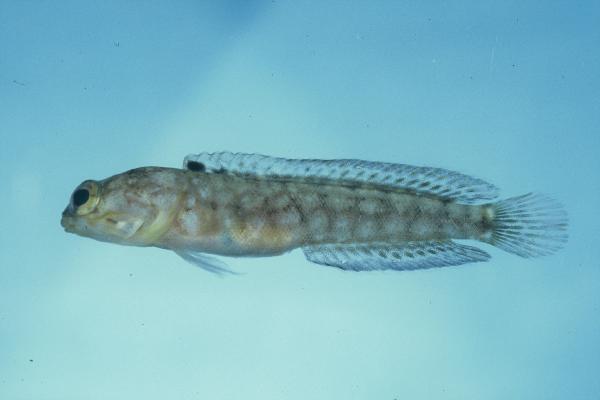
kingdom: Animalia
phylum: Chordata
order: Perciformes
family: Opistognathidae
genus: Opistognathus
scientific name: Opistognathus solorensis
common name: Solor jawfish
